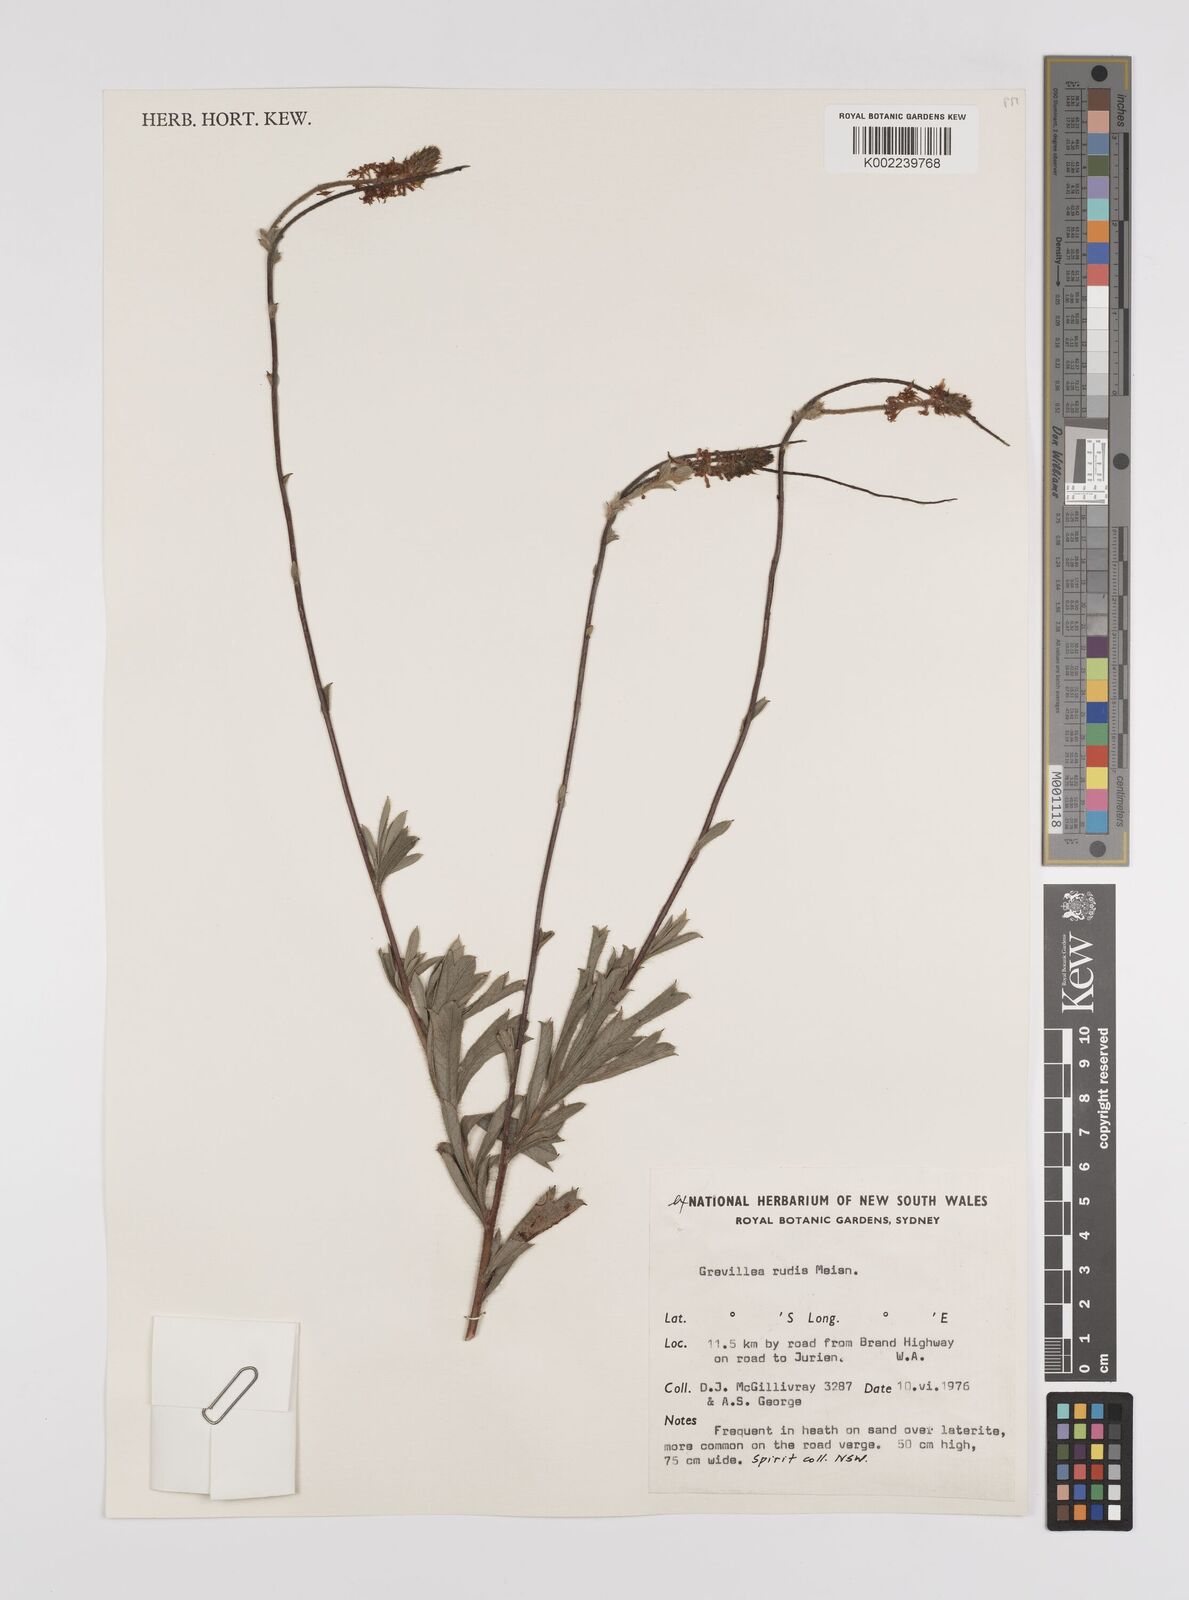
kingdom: Plantae
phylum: Tracheophyta
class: Magnoliopsida
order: Proteales
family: Proteaceae
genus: Grevillea
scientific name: Grevillea rudis
